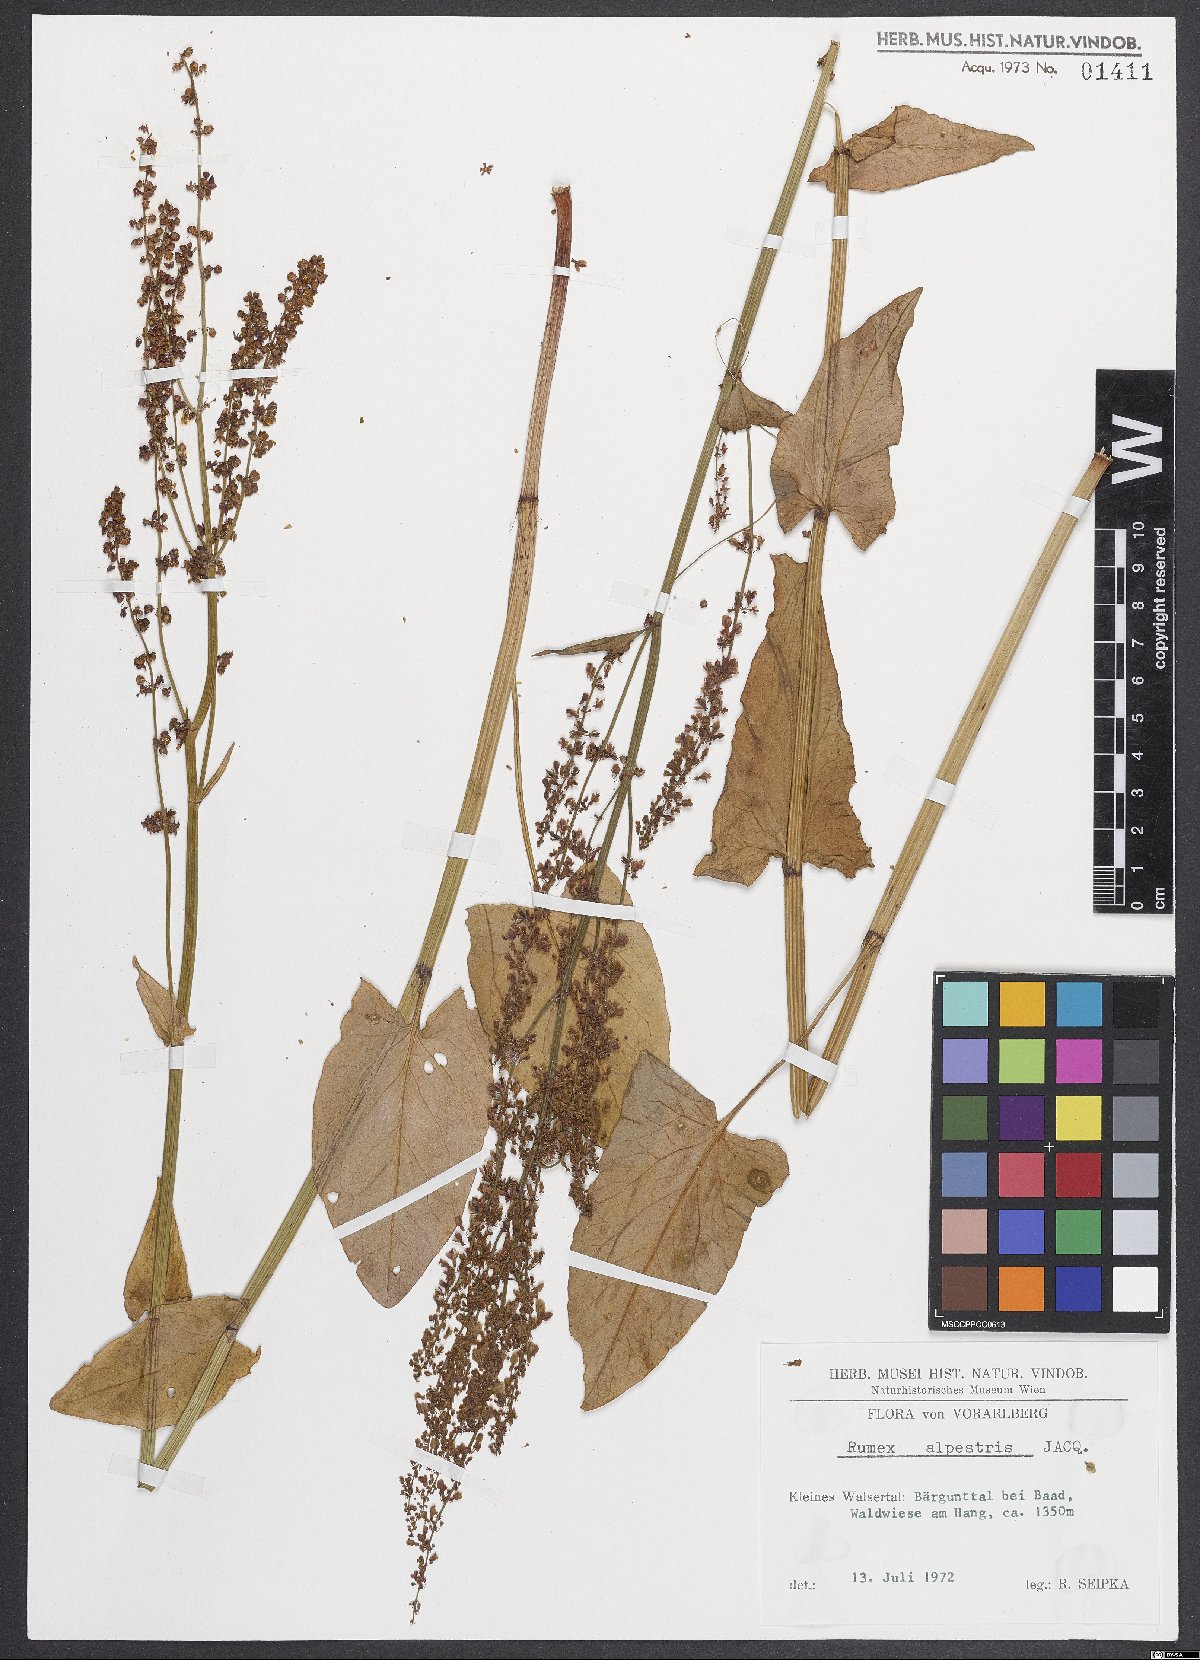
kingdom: Plantae
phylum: Tracheophyta
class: Magnoliopsida
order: Caryophyllales
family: Polygonaceae
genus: Rumex
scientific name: Rumex scutatus
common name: French sorrel
